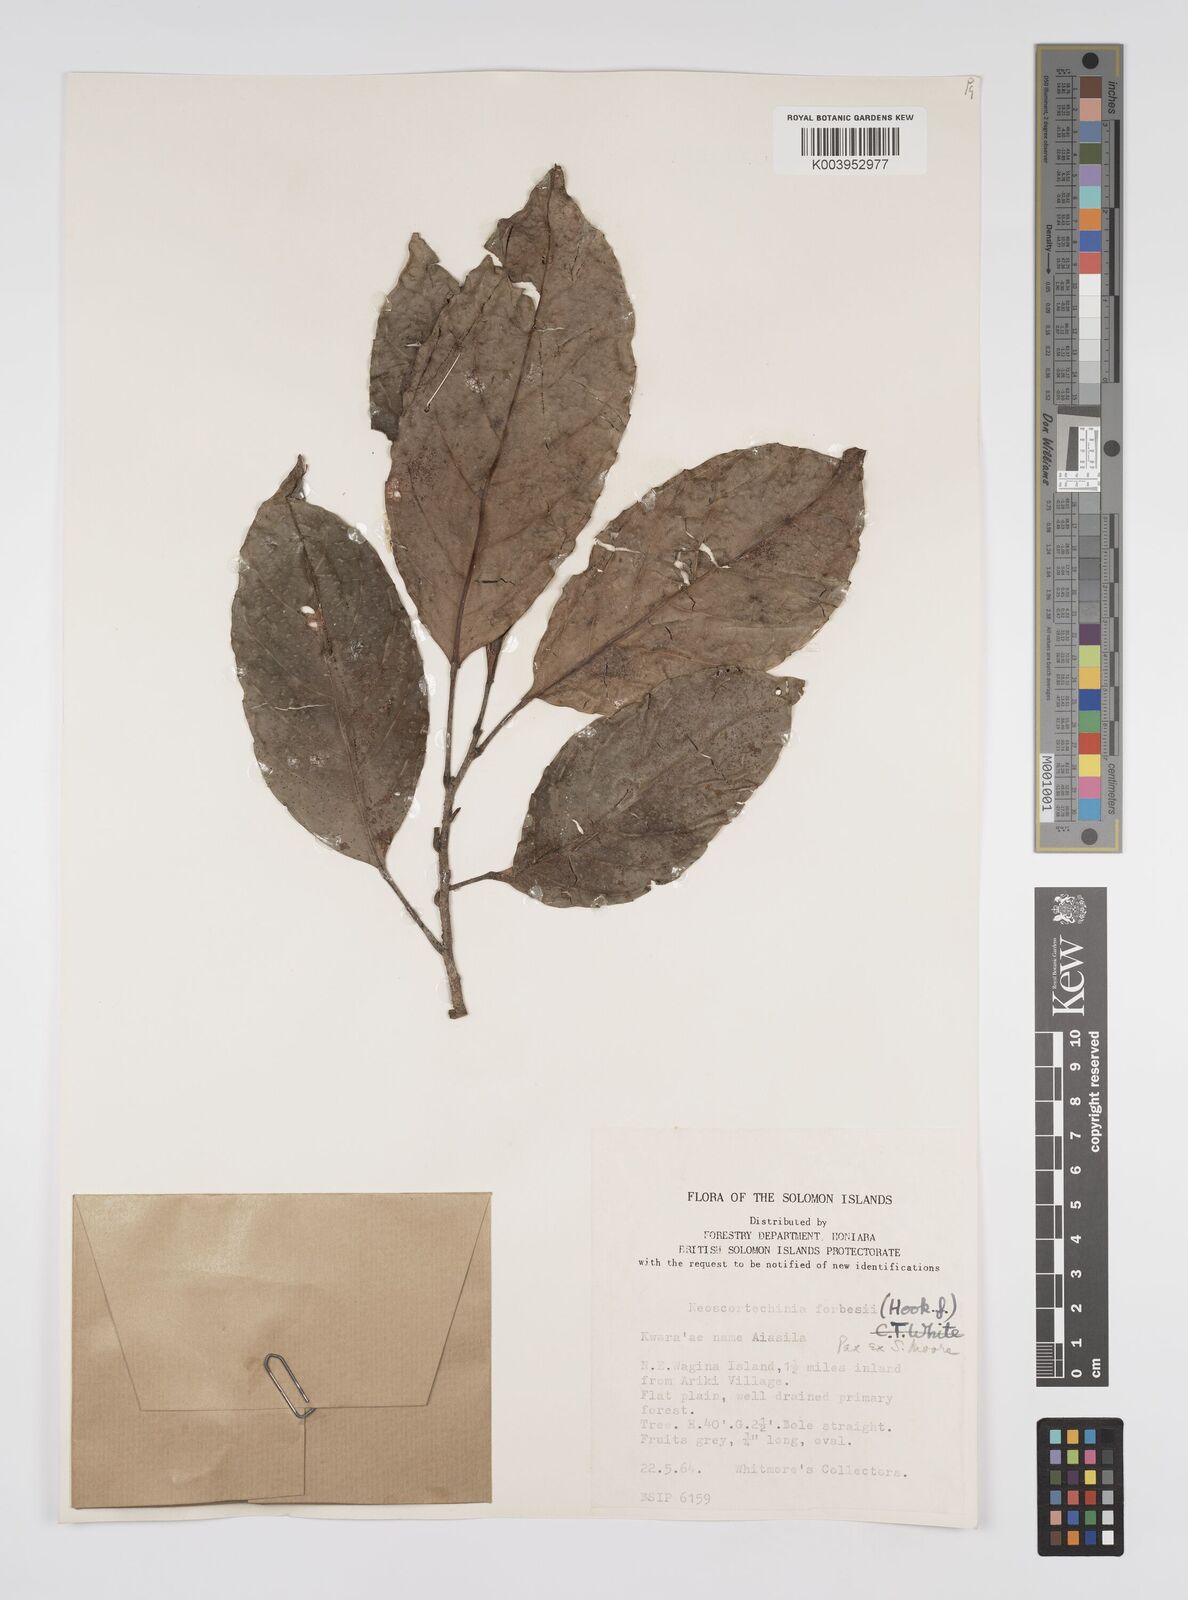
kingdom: Plantae
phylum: Tracheophyta
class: Magnoliopsida
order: Malpighiales
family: Euphorbiaceae
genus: Neoscortechinia
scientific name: Neoscortechinia forbesii
